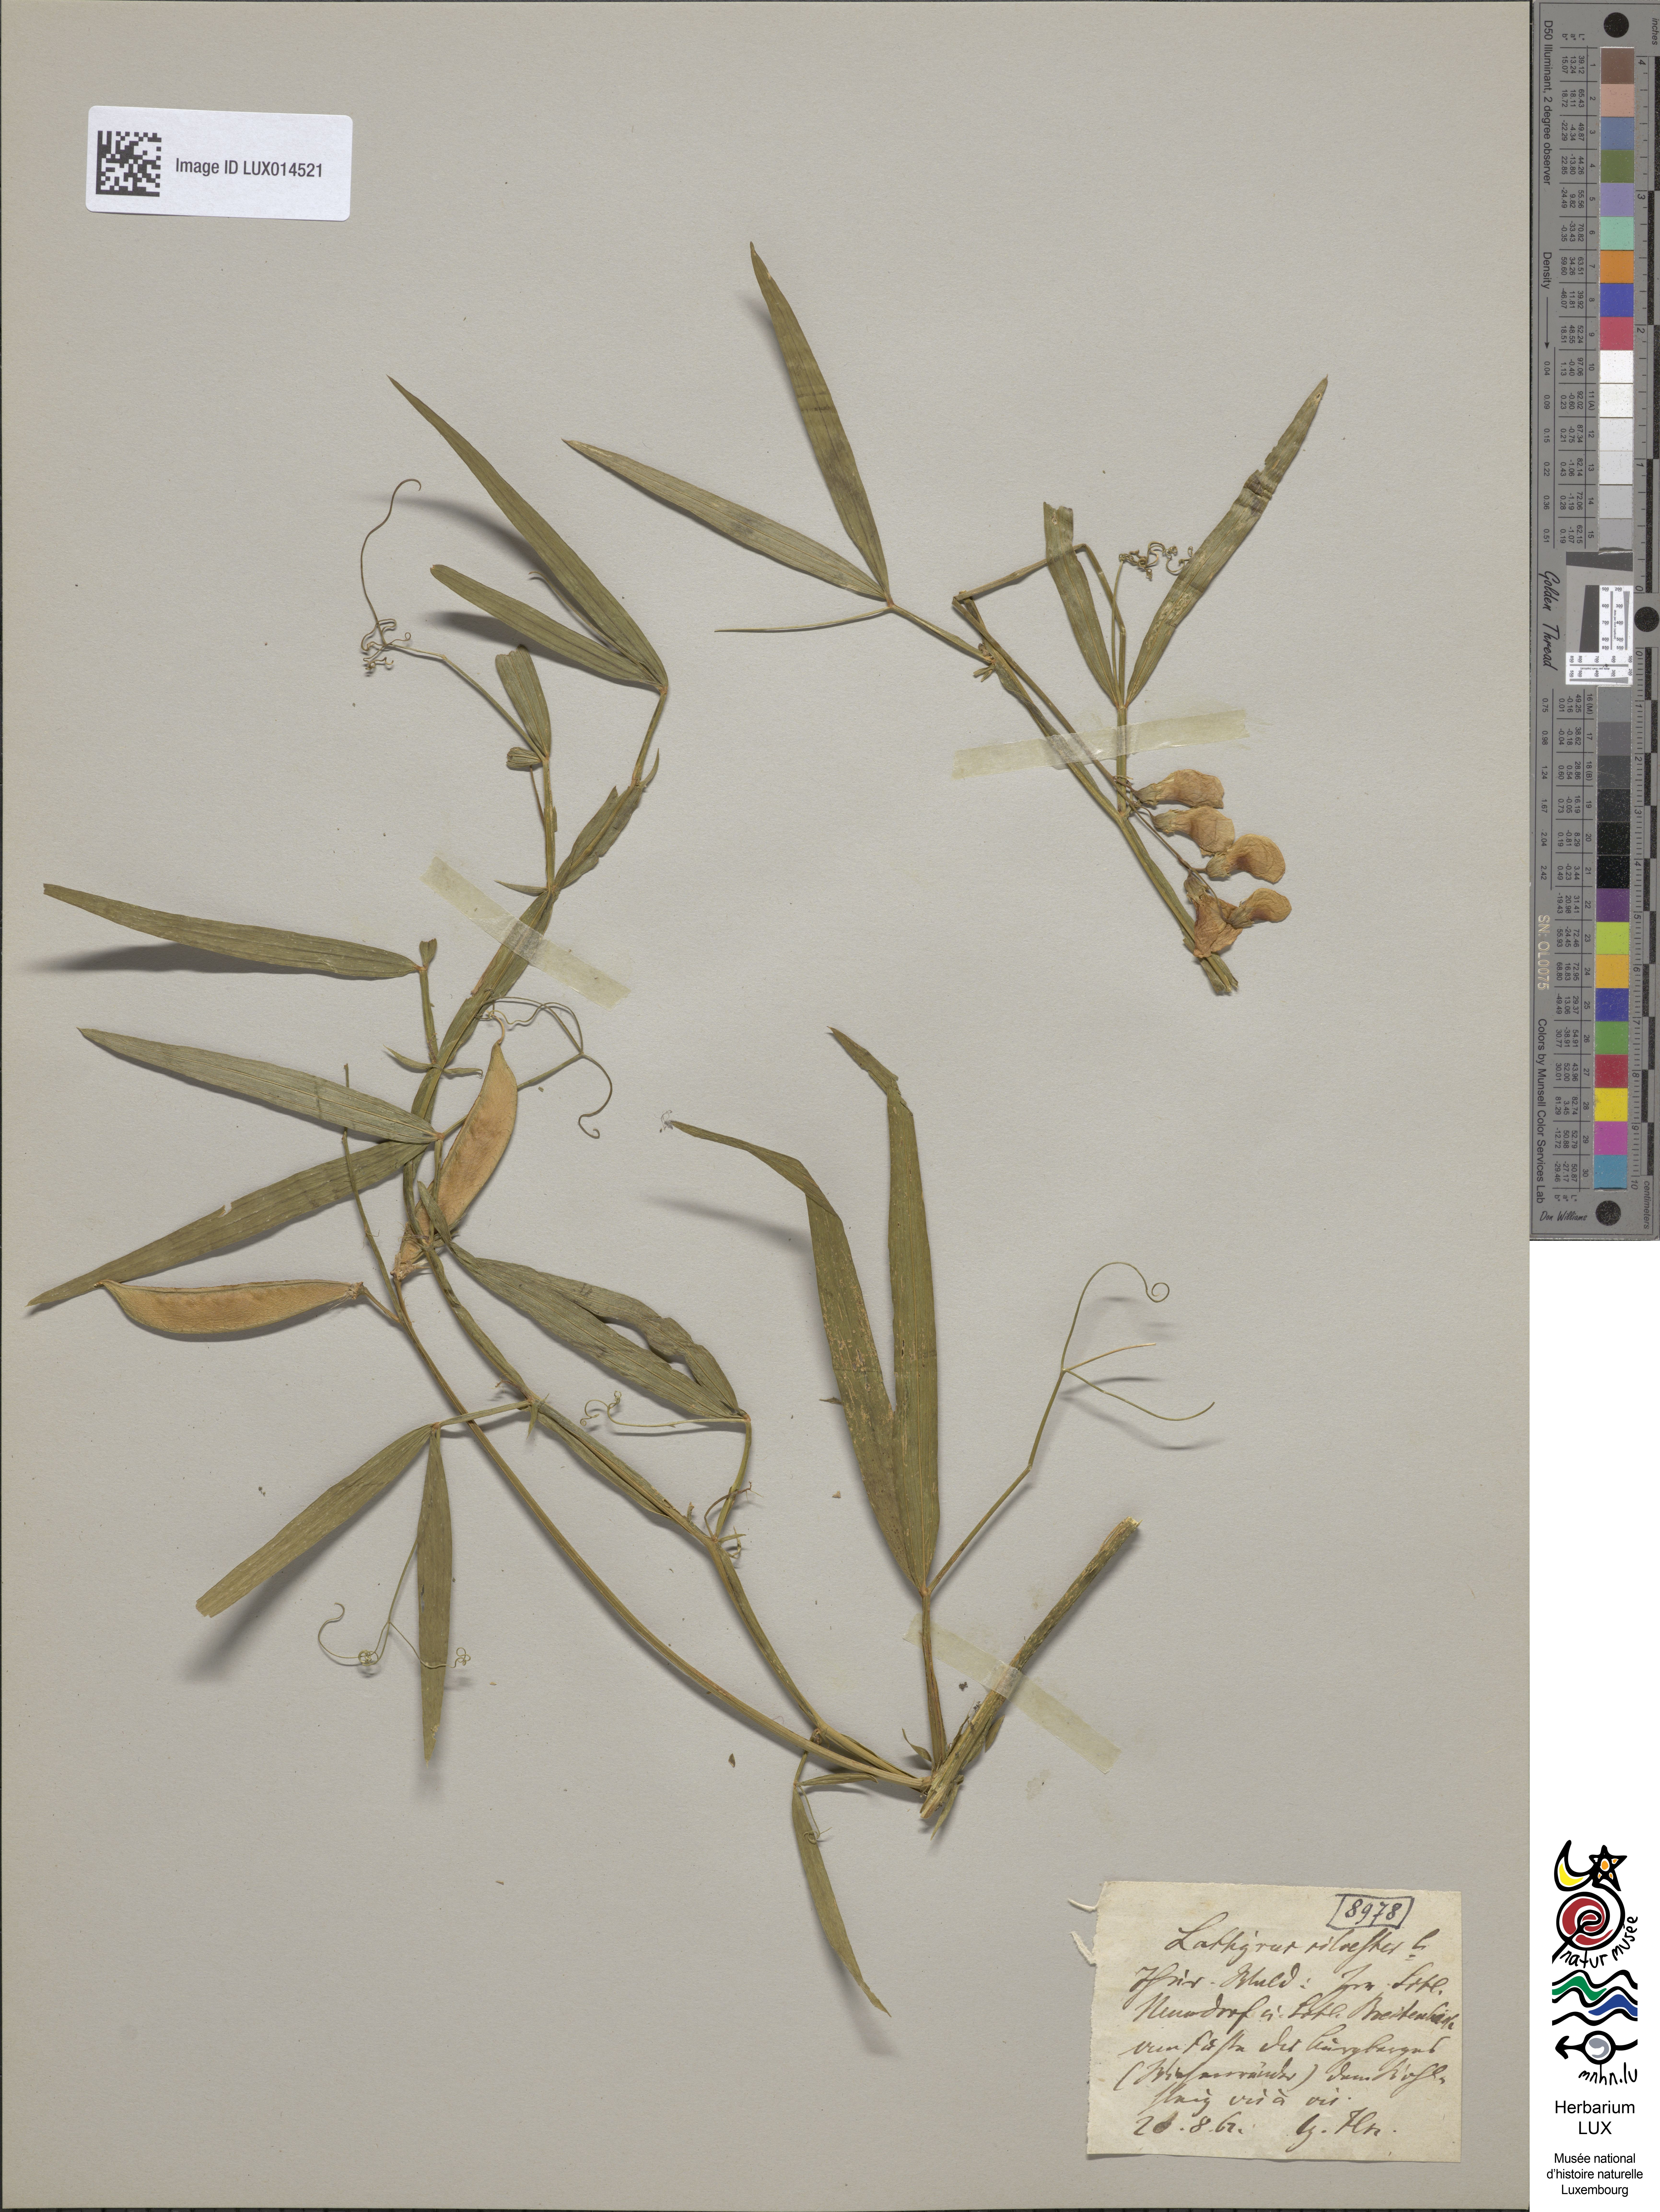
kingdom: Plantae
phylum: Tracheophyta
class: Magnoliopsida
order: Fabales
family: Fabaceae
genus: Lathyrus
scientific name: Lathyrus sylvestris
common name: Flat pea
